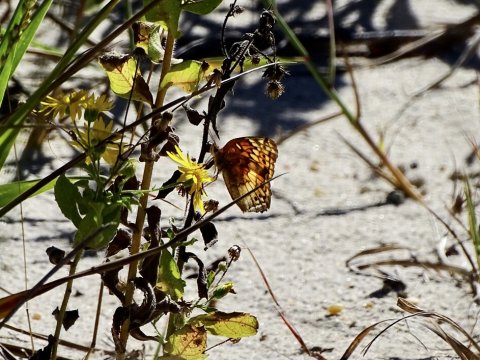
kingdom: Animalia
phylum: Arthropoda
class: Insecta
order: Lepidoptera
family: Nymphalidae
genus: Euptoieta
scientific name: Euptoieta claudia
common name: Variegated Fritillary
